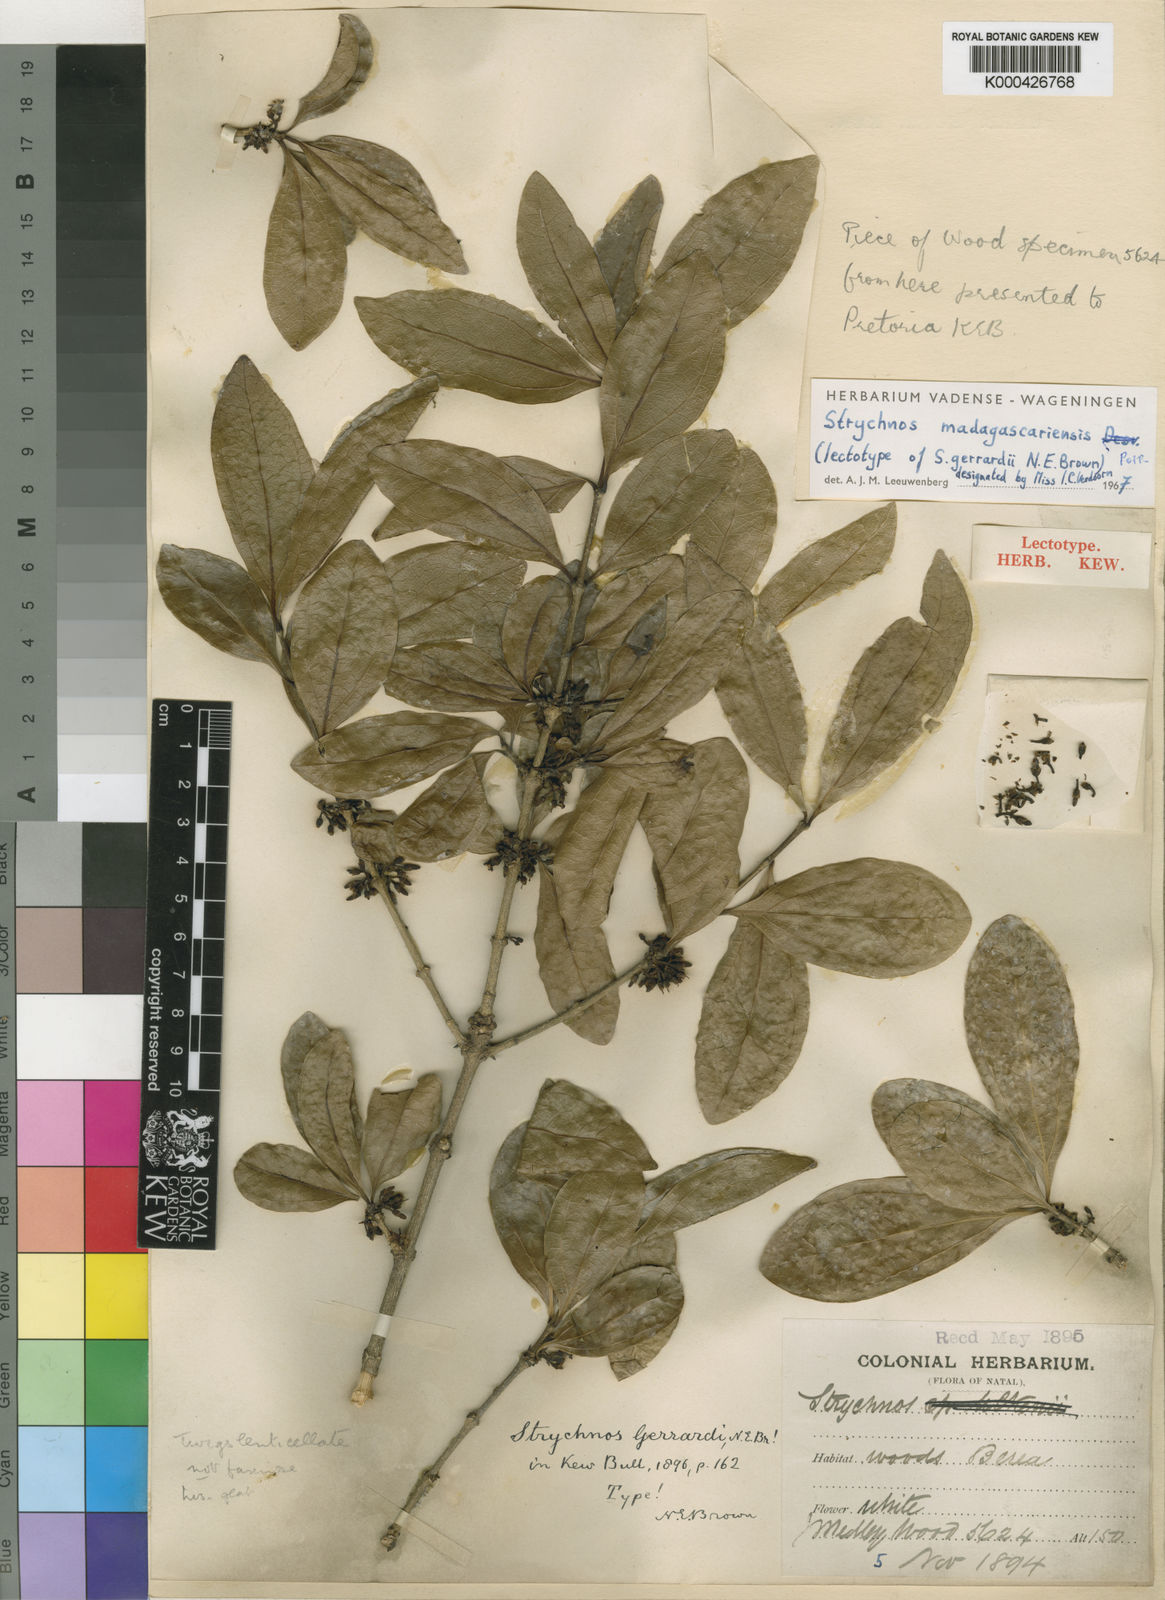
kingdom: Plantae
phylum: Tracheophyta
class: Magnoliopsida
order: Gentianales
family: Loganiaceae
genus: Strychnos
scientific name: Strychnos madagascariensis
